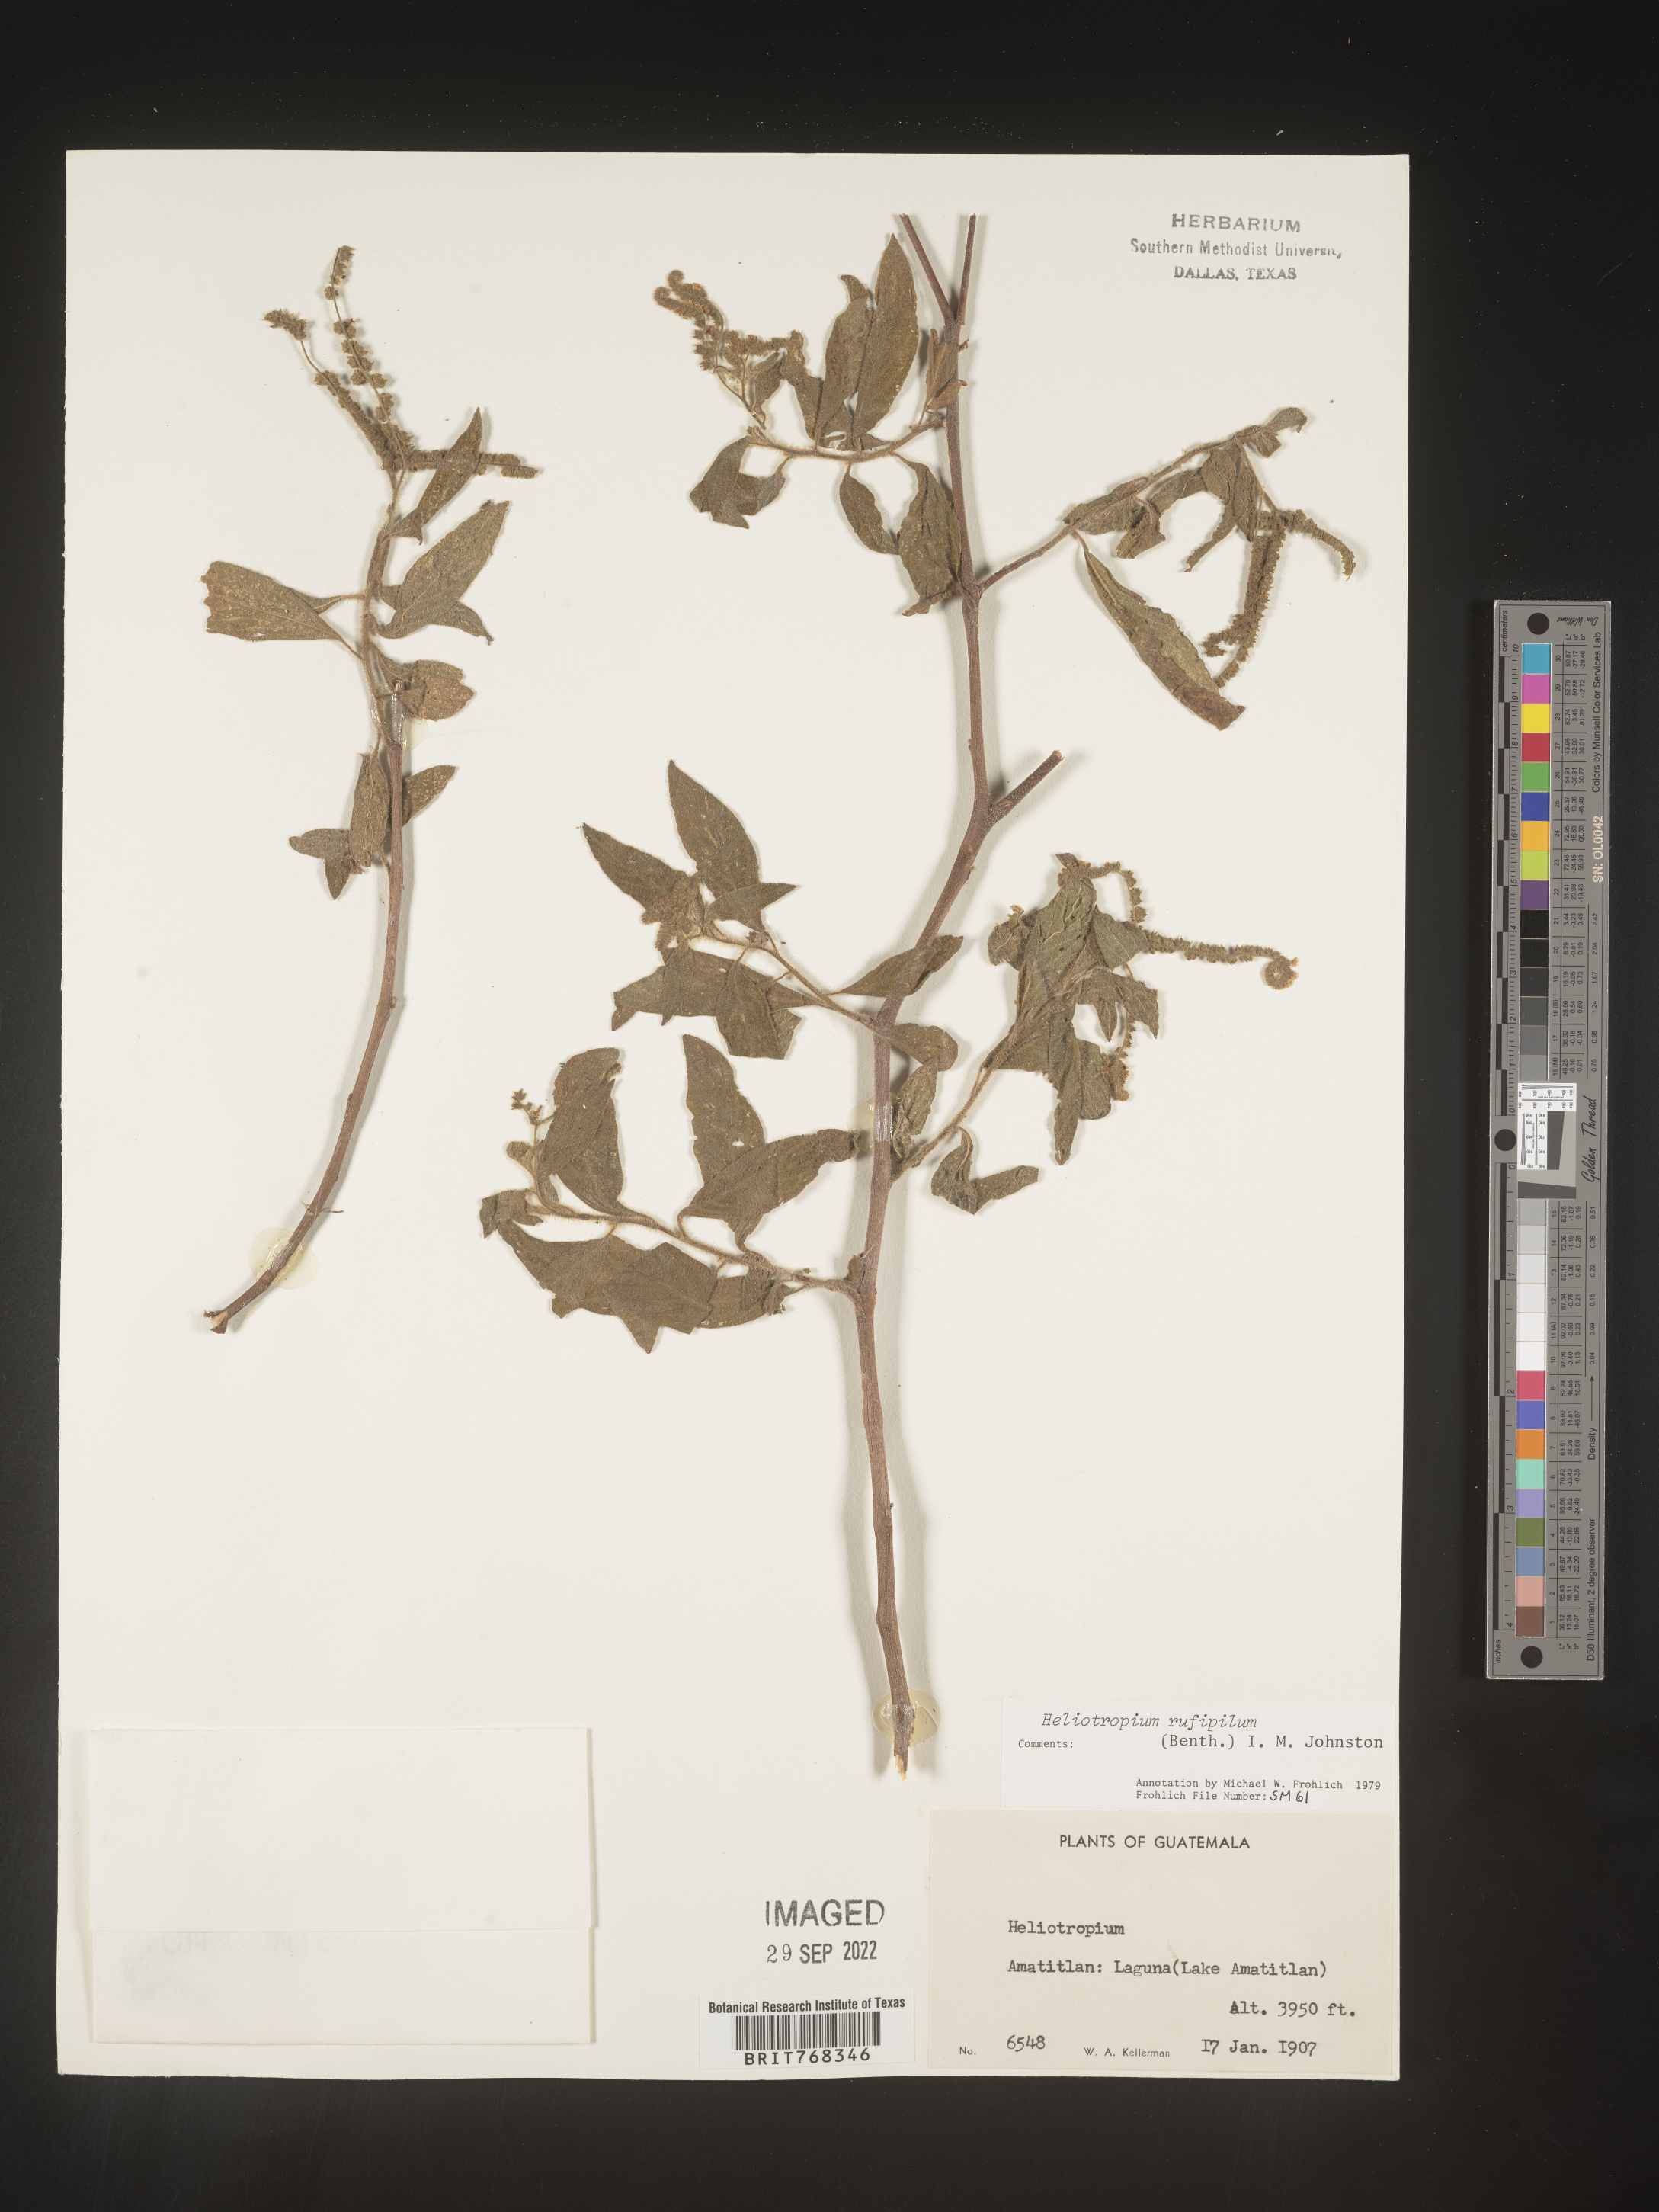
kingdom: Plantae
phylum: Tracheophyta
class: Magnoliopsida
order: Boraginales
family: Heliotropiaceae
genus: Heliotropium
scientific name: Heliotropium
